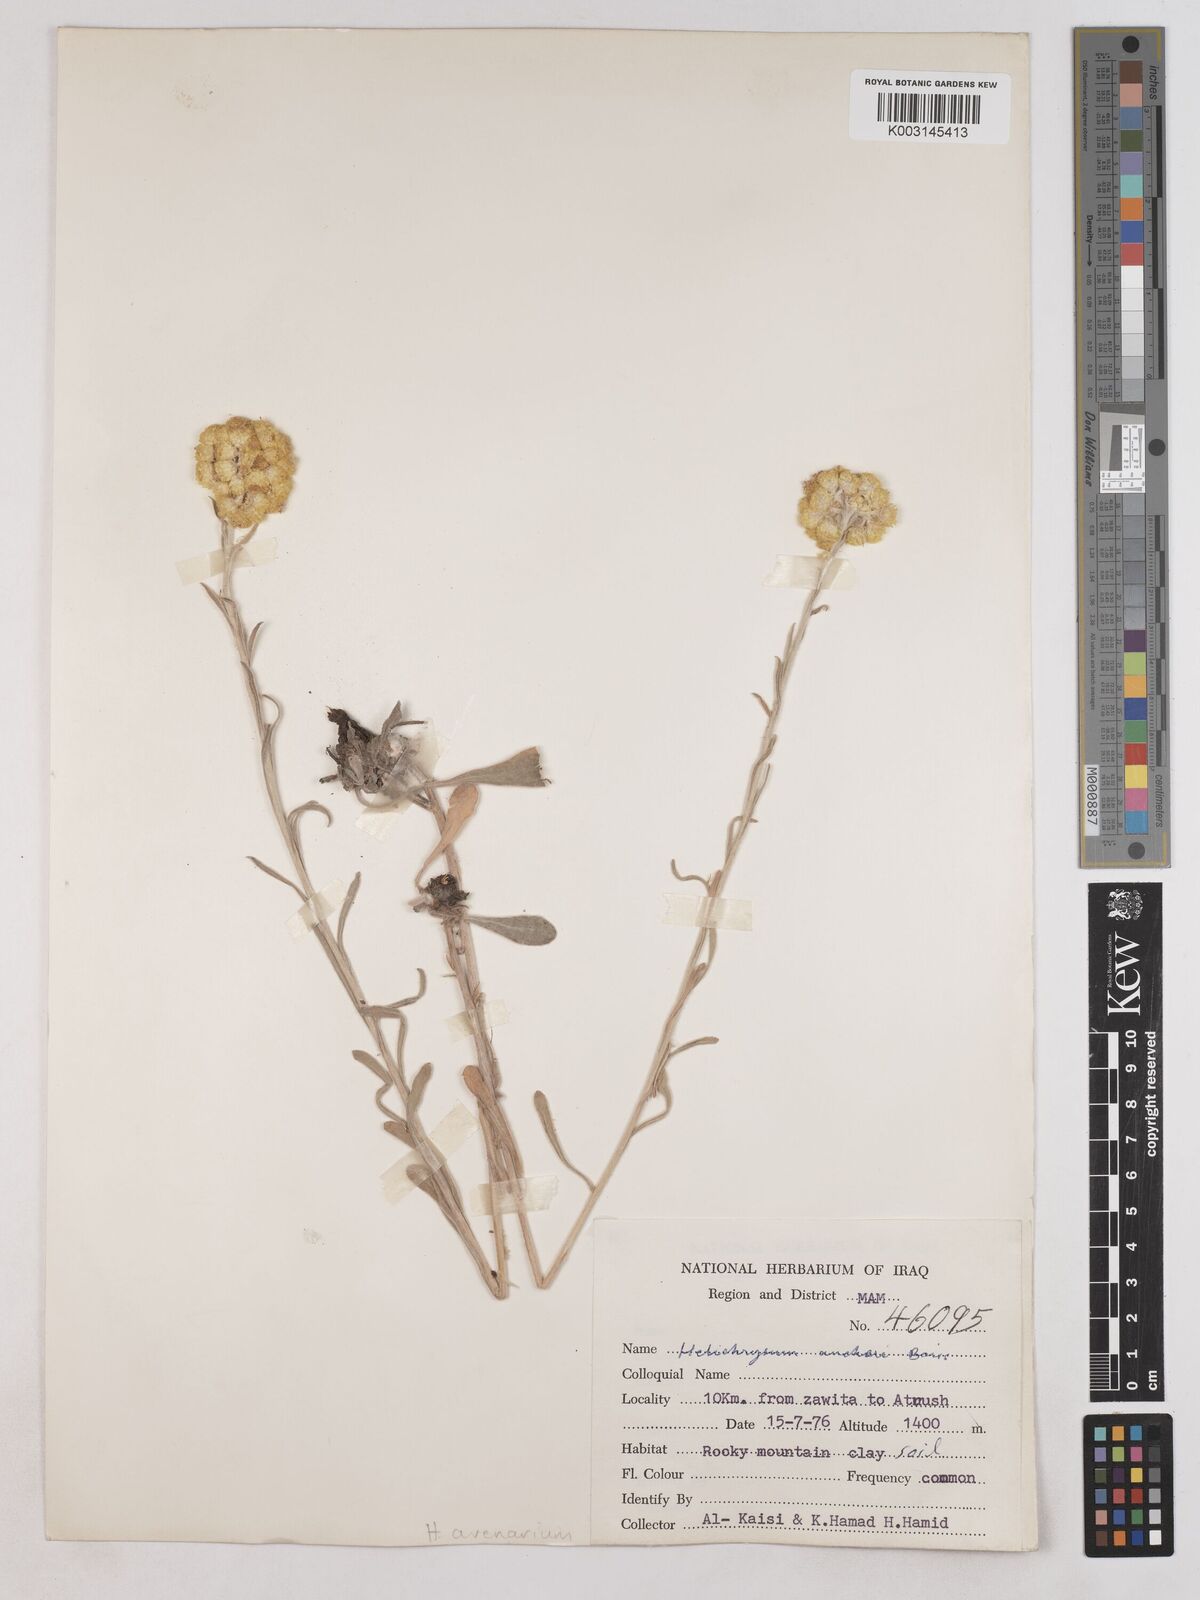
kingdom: Plantae
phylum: Tracheophyta
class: Magnoliopsida
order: Asterales
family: Asteraceae
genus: Helichrysum
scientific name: Helichrysum arenarium
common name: Strawflower
